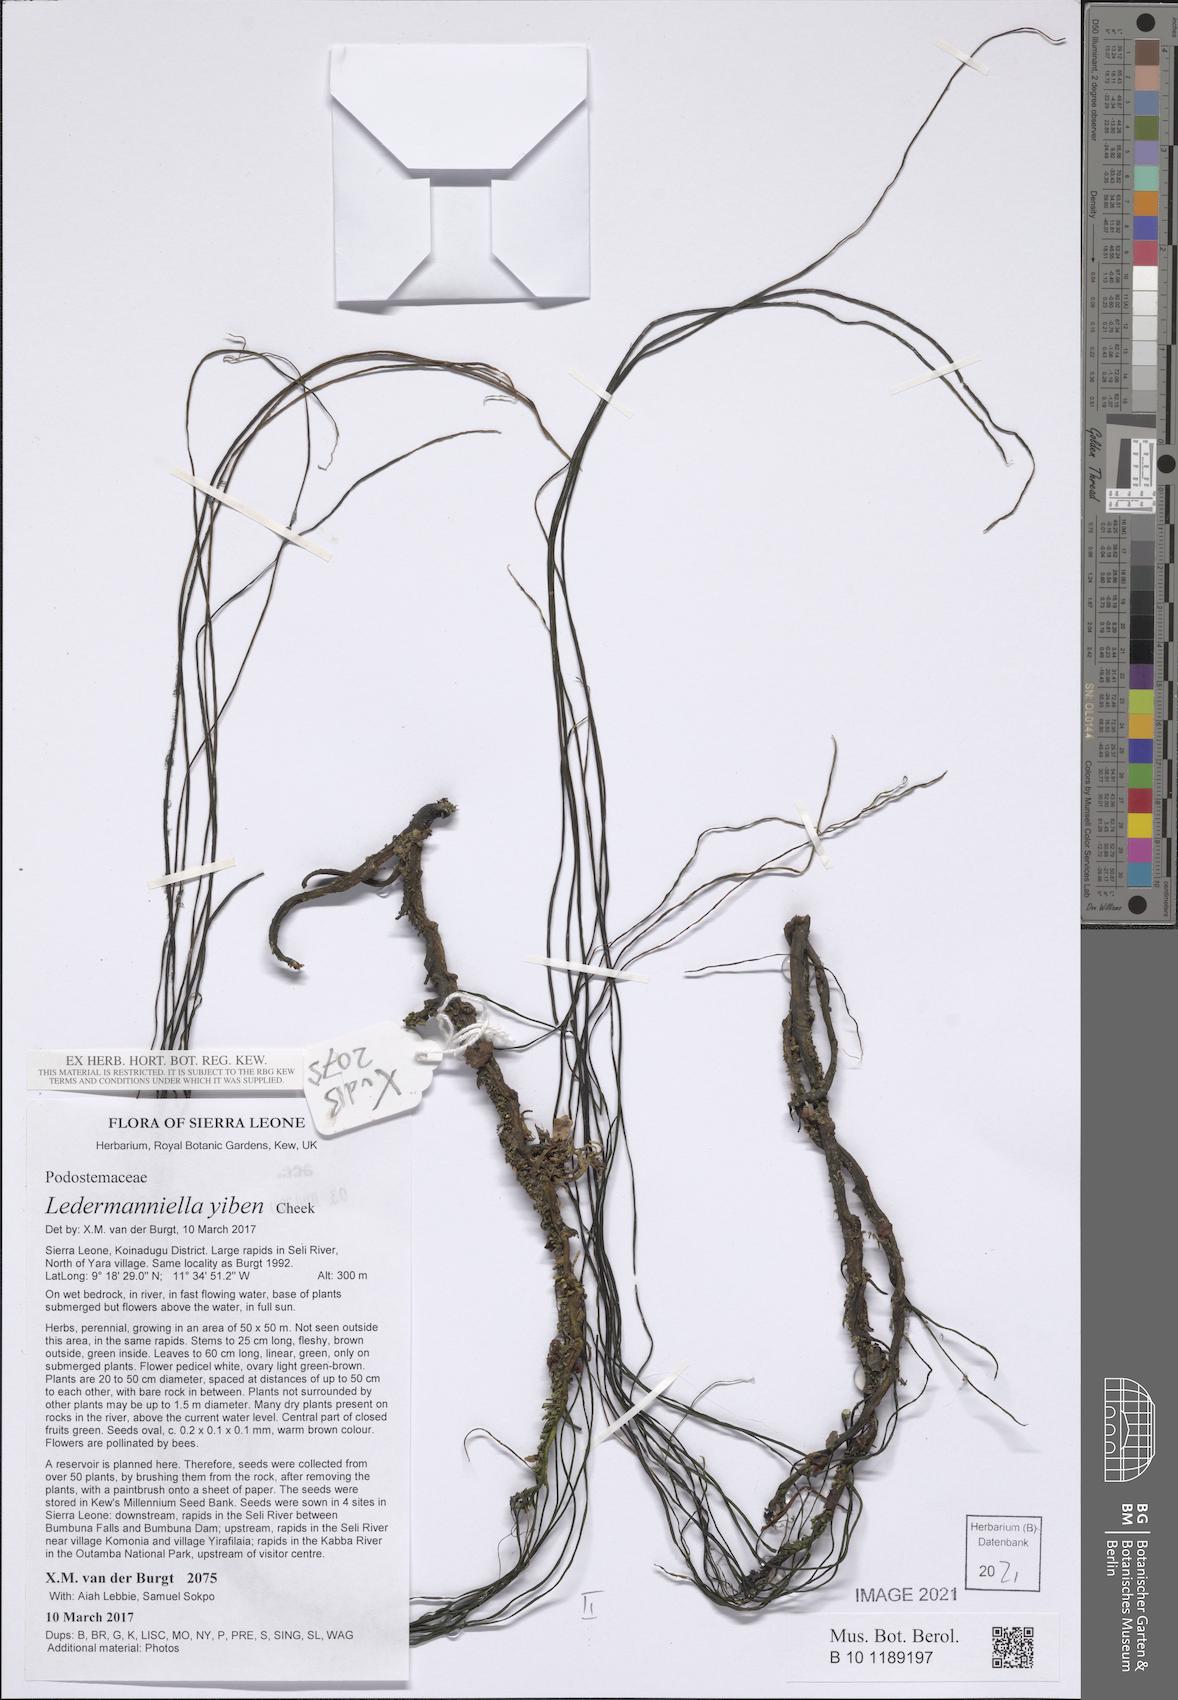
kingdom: Plantae
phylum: Tracheophyta
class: Magnoliopsida
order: Malpighiales
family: Podostemaceae
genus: Ledermanniella
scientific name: Ledermanniella yiben
